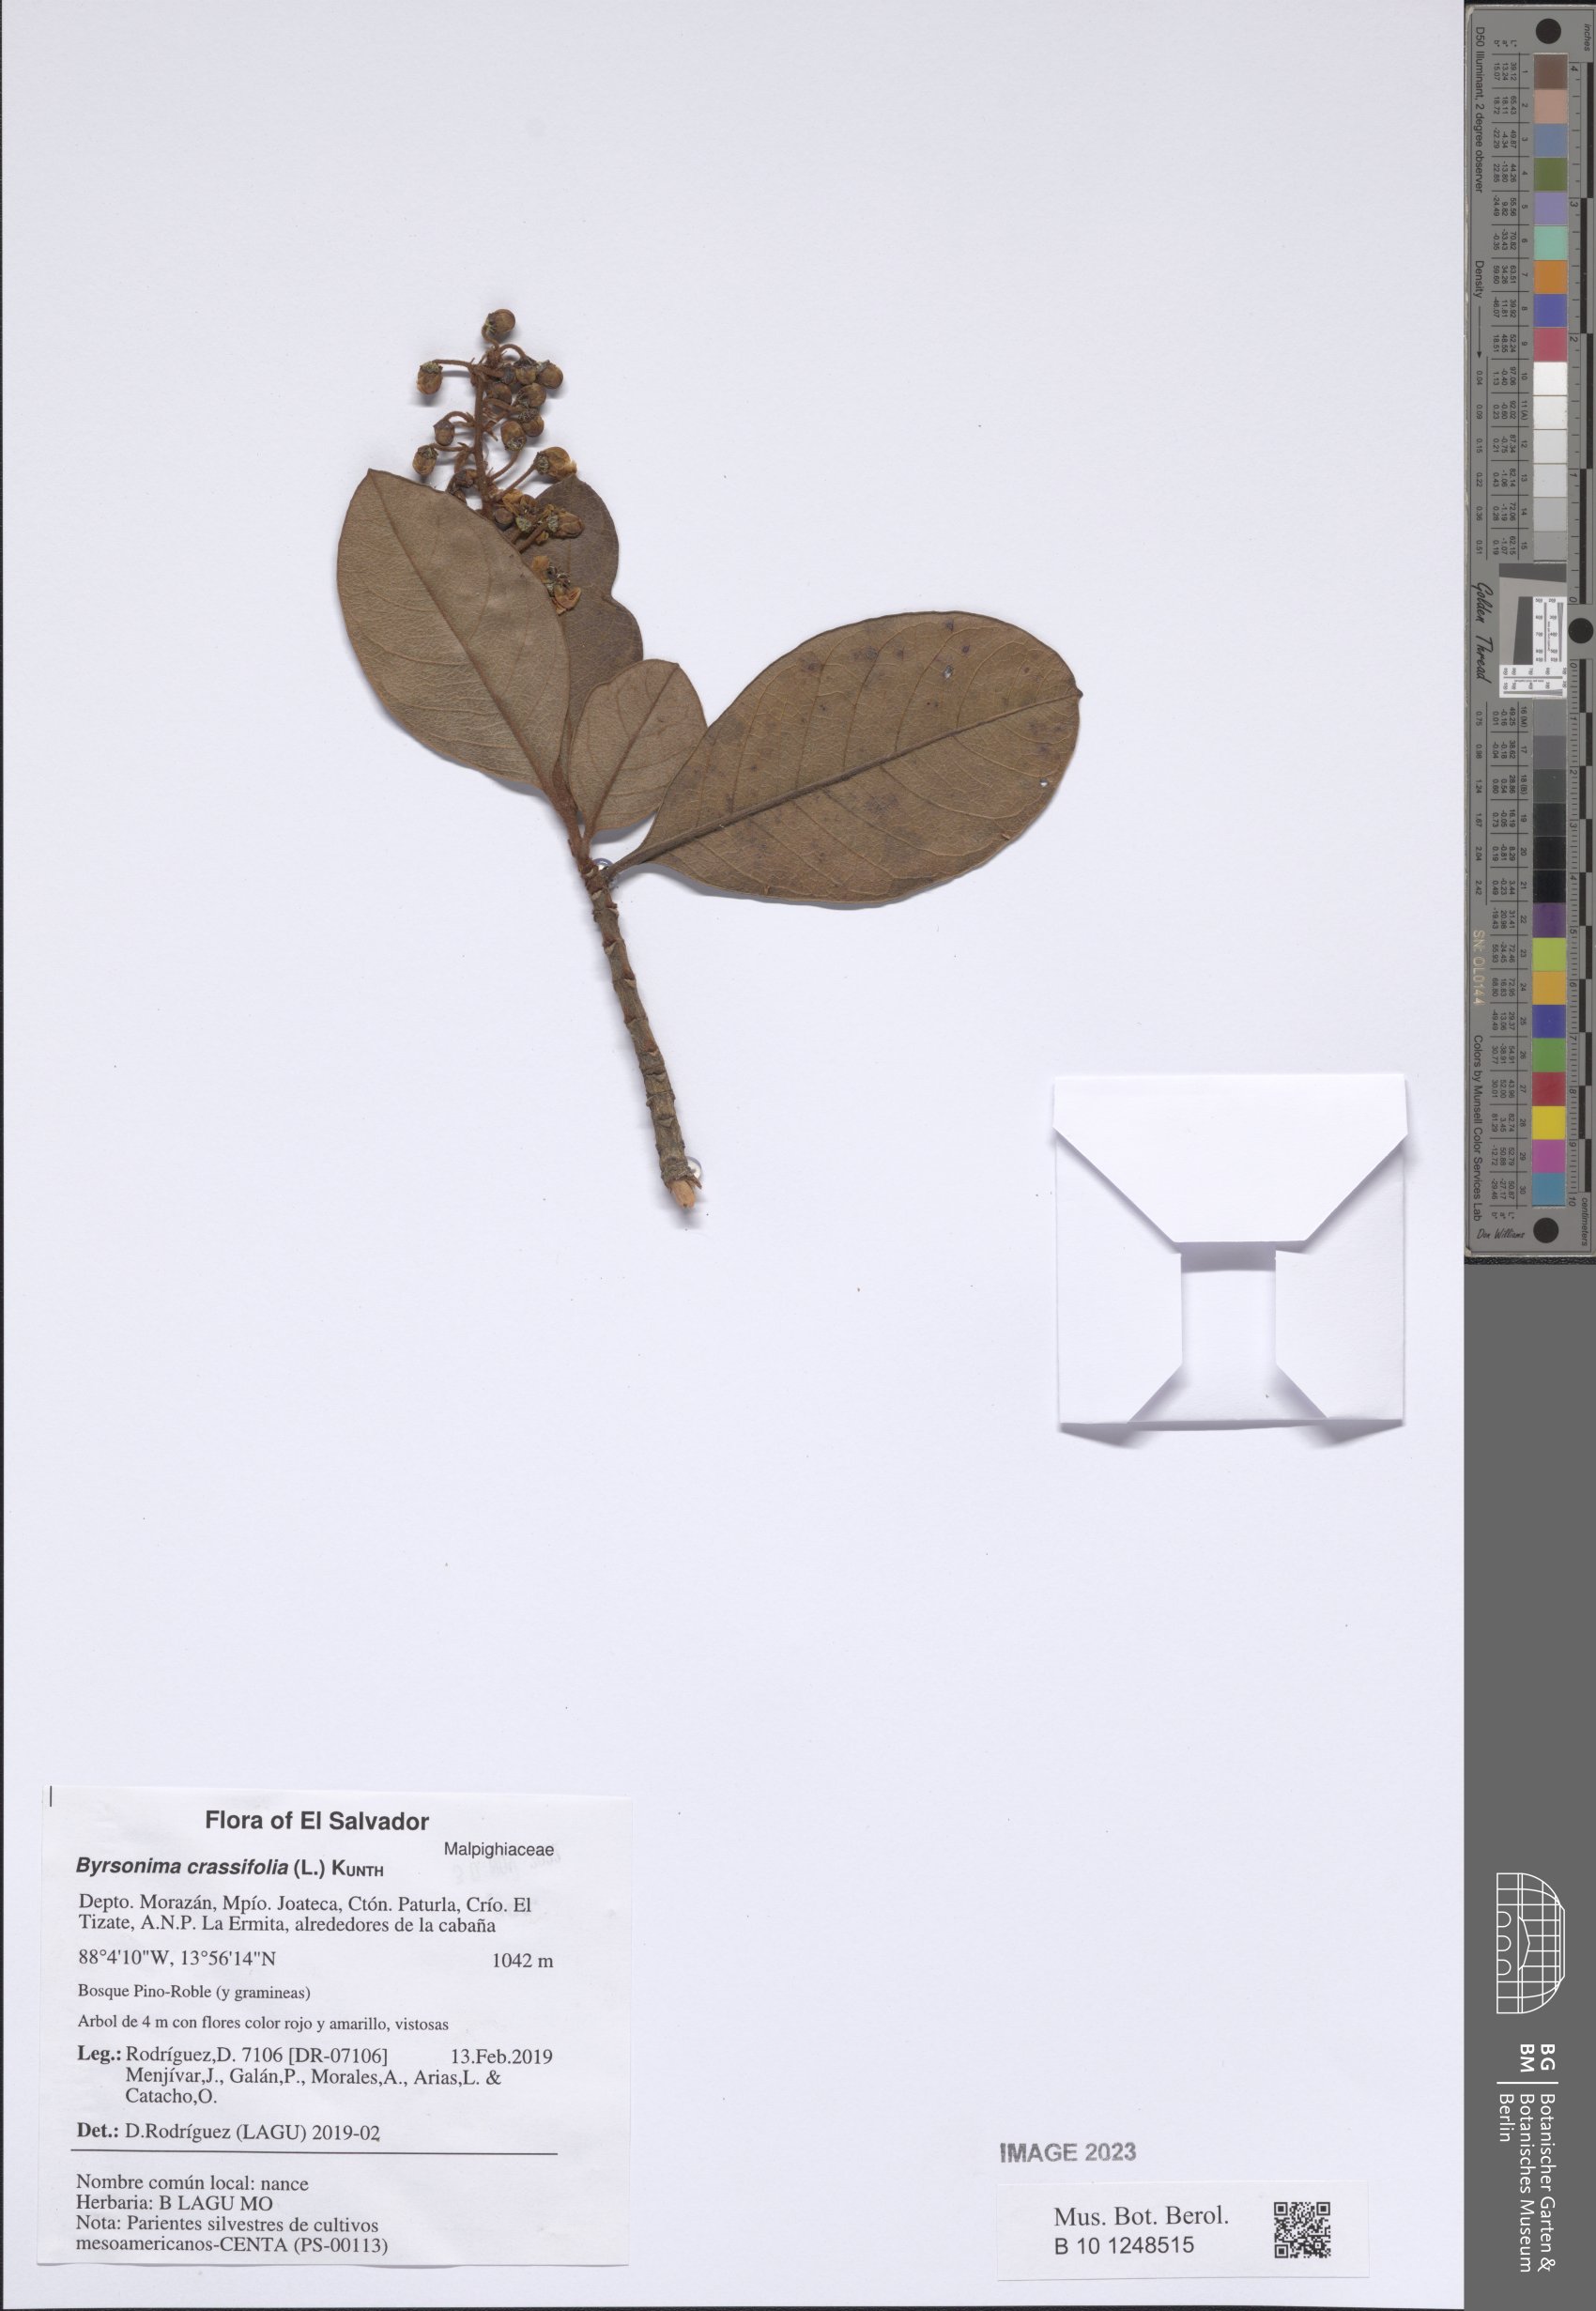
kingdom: Plantae
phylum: Tracheophyta
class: Magnoliopsida
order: Malpighiales
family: Malpighiaceae
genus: Byrsonima
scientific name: Byrsonima crassifolia
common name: Golden spoon
